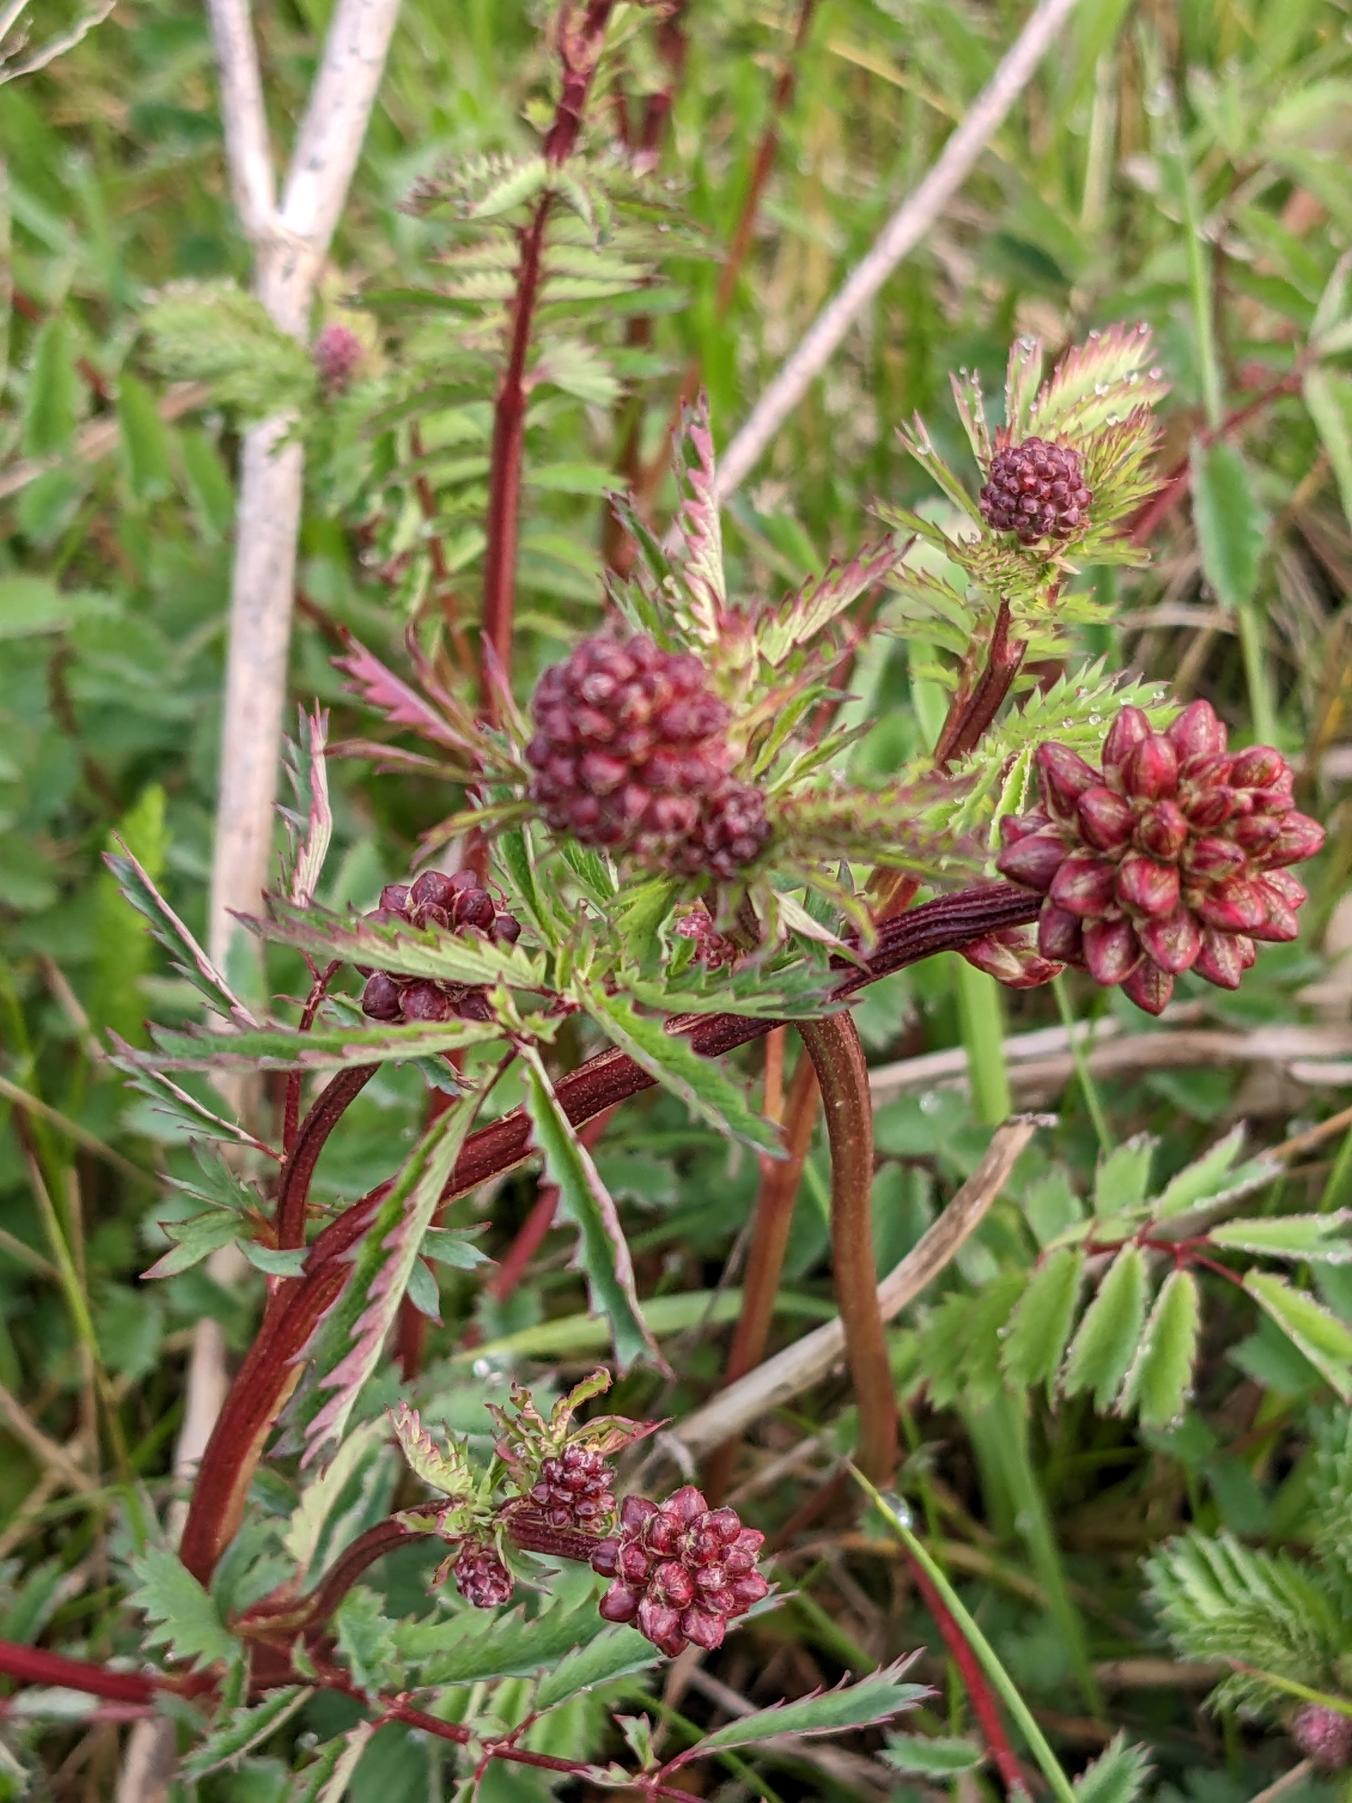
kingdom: Plantae
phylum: Tracheophyta
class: Magnoliopsida
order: Rosales
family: Rosaceae
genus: Poterium
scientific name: Poterium sanguisorba
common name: Bibernelle
